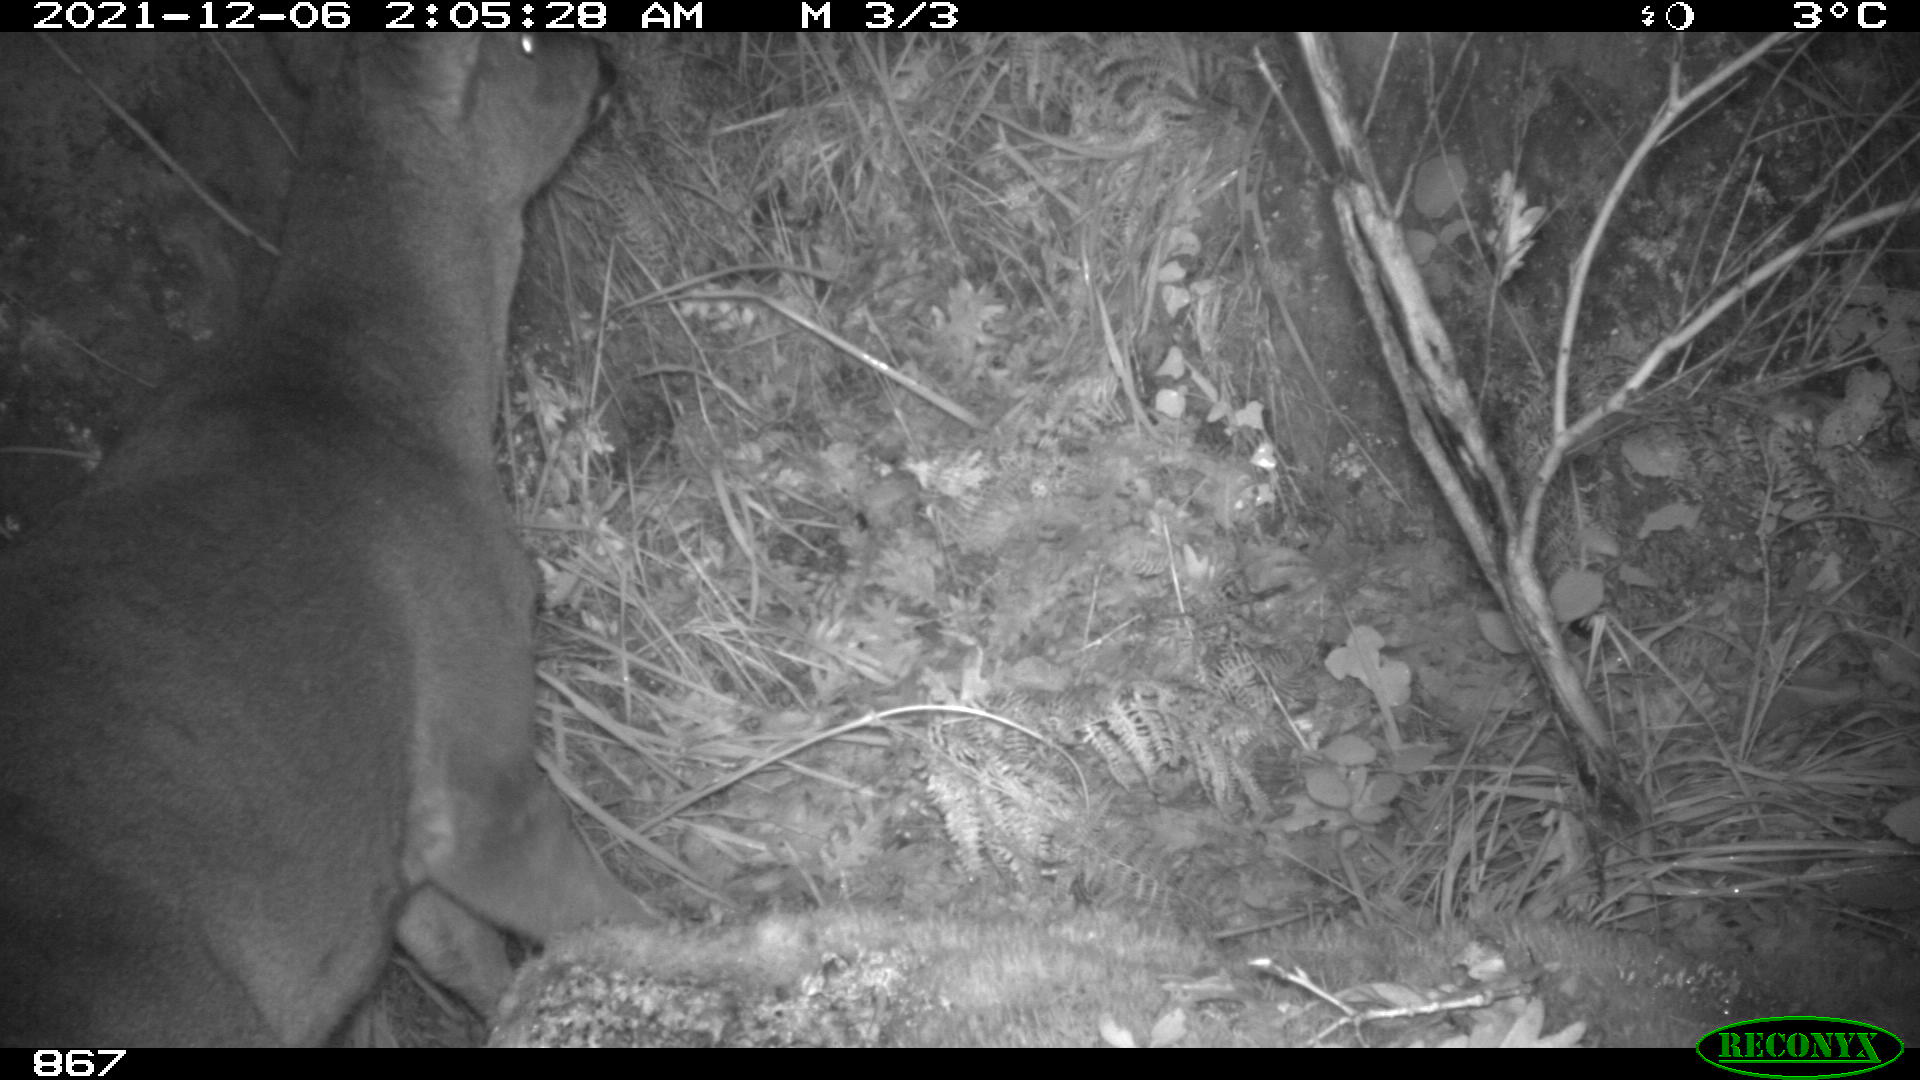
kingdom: Animalia
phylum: Chordata
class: Mammalia
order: Artiodactyla
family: Cervidae
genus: Capreolus
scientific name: Capreolus capreolus
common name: Western roe deer
